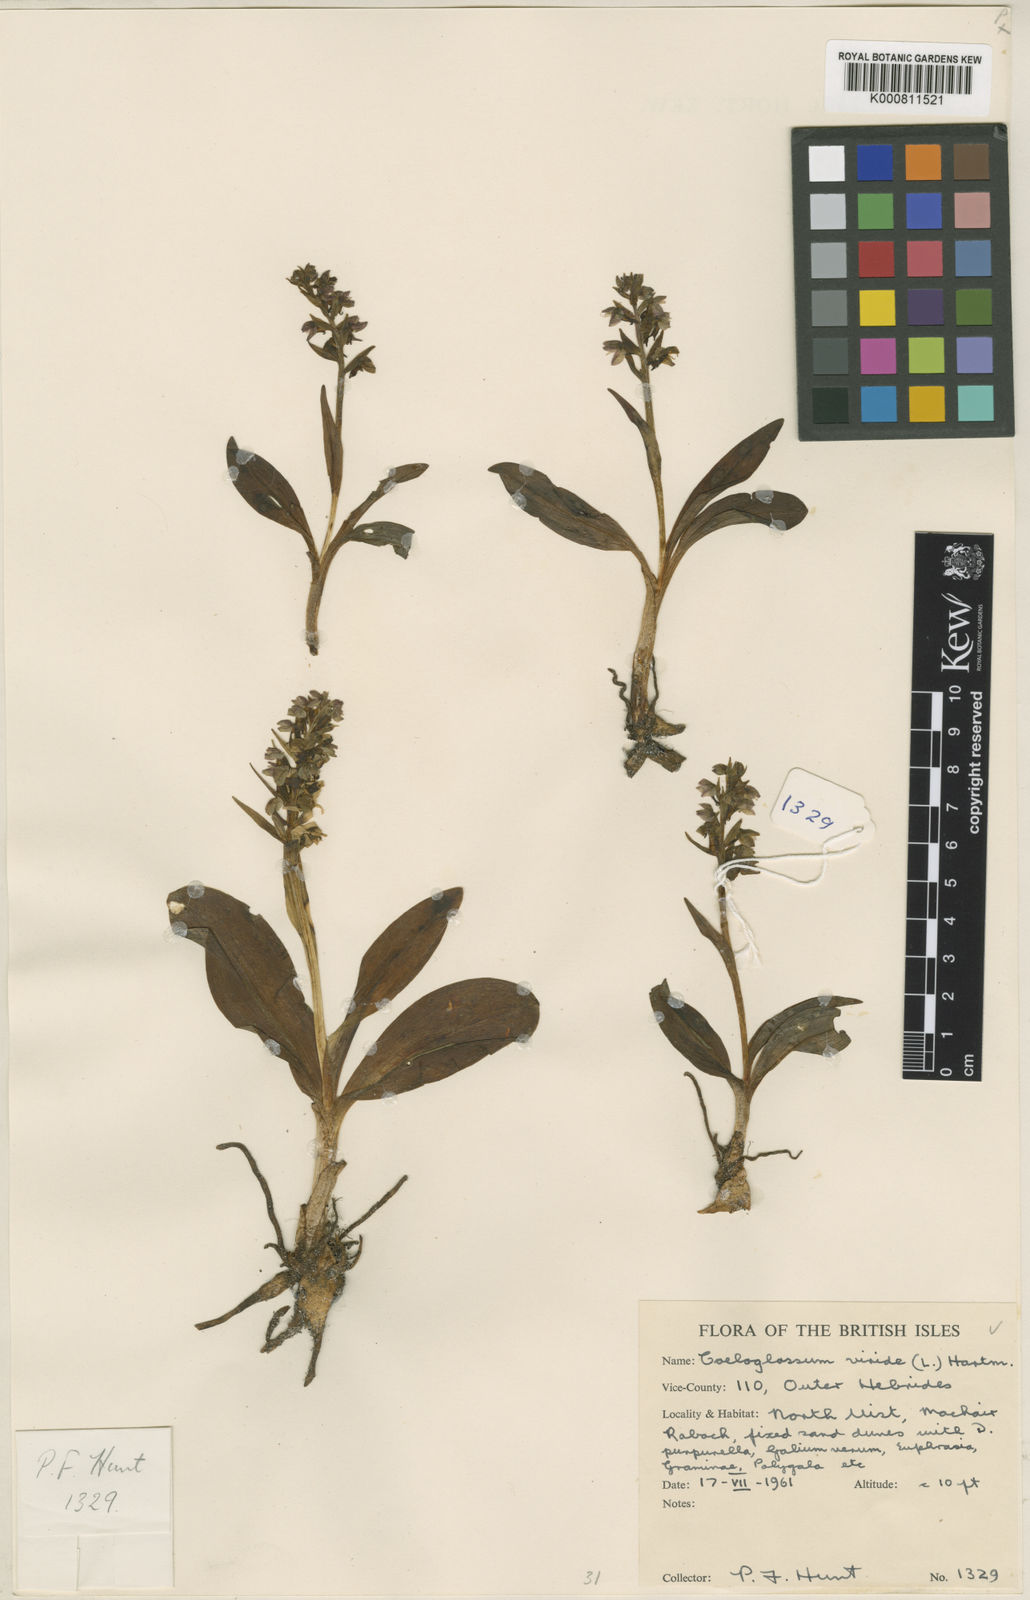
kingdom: Plantae
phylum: Tracheophyta
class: Liliopsida
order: Asparagales
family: Orchidaceae
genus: Dactylorhiza
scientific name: Dactylorhiza viridis
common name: Longbract frog orchid
